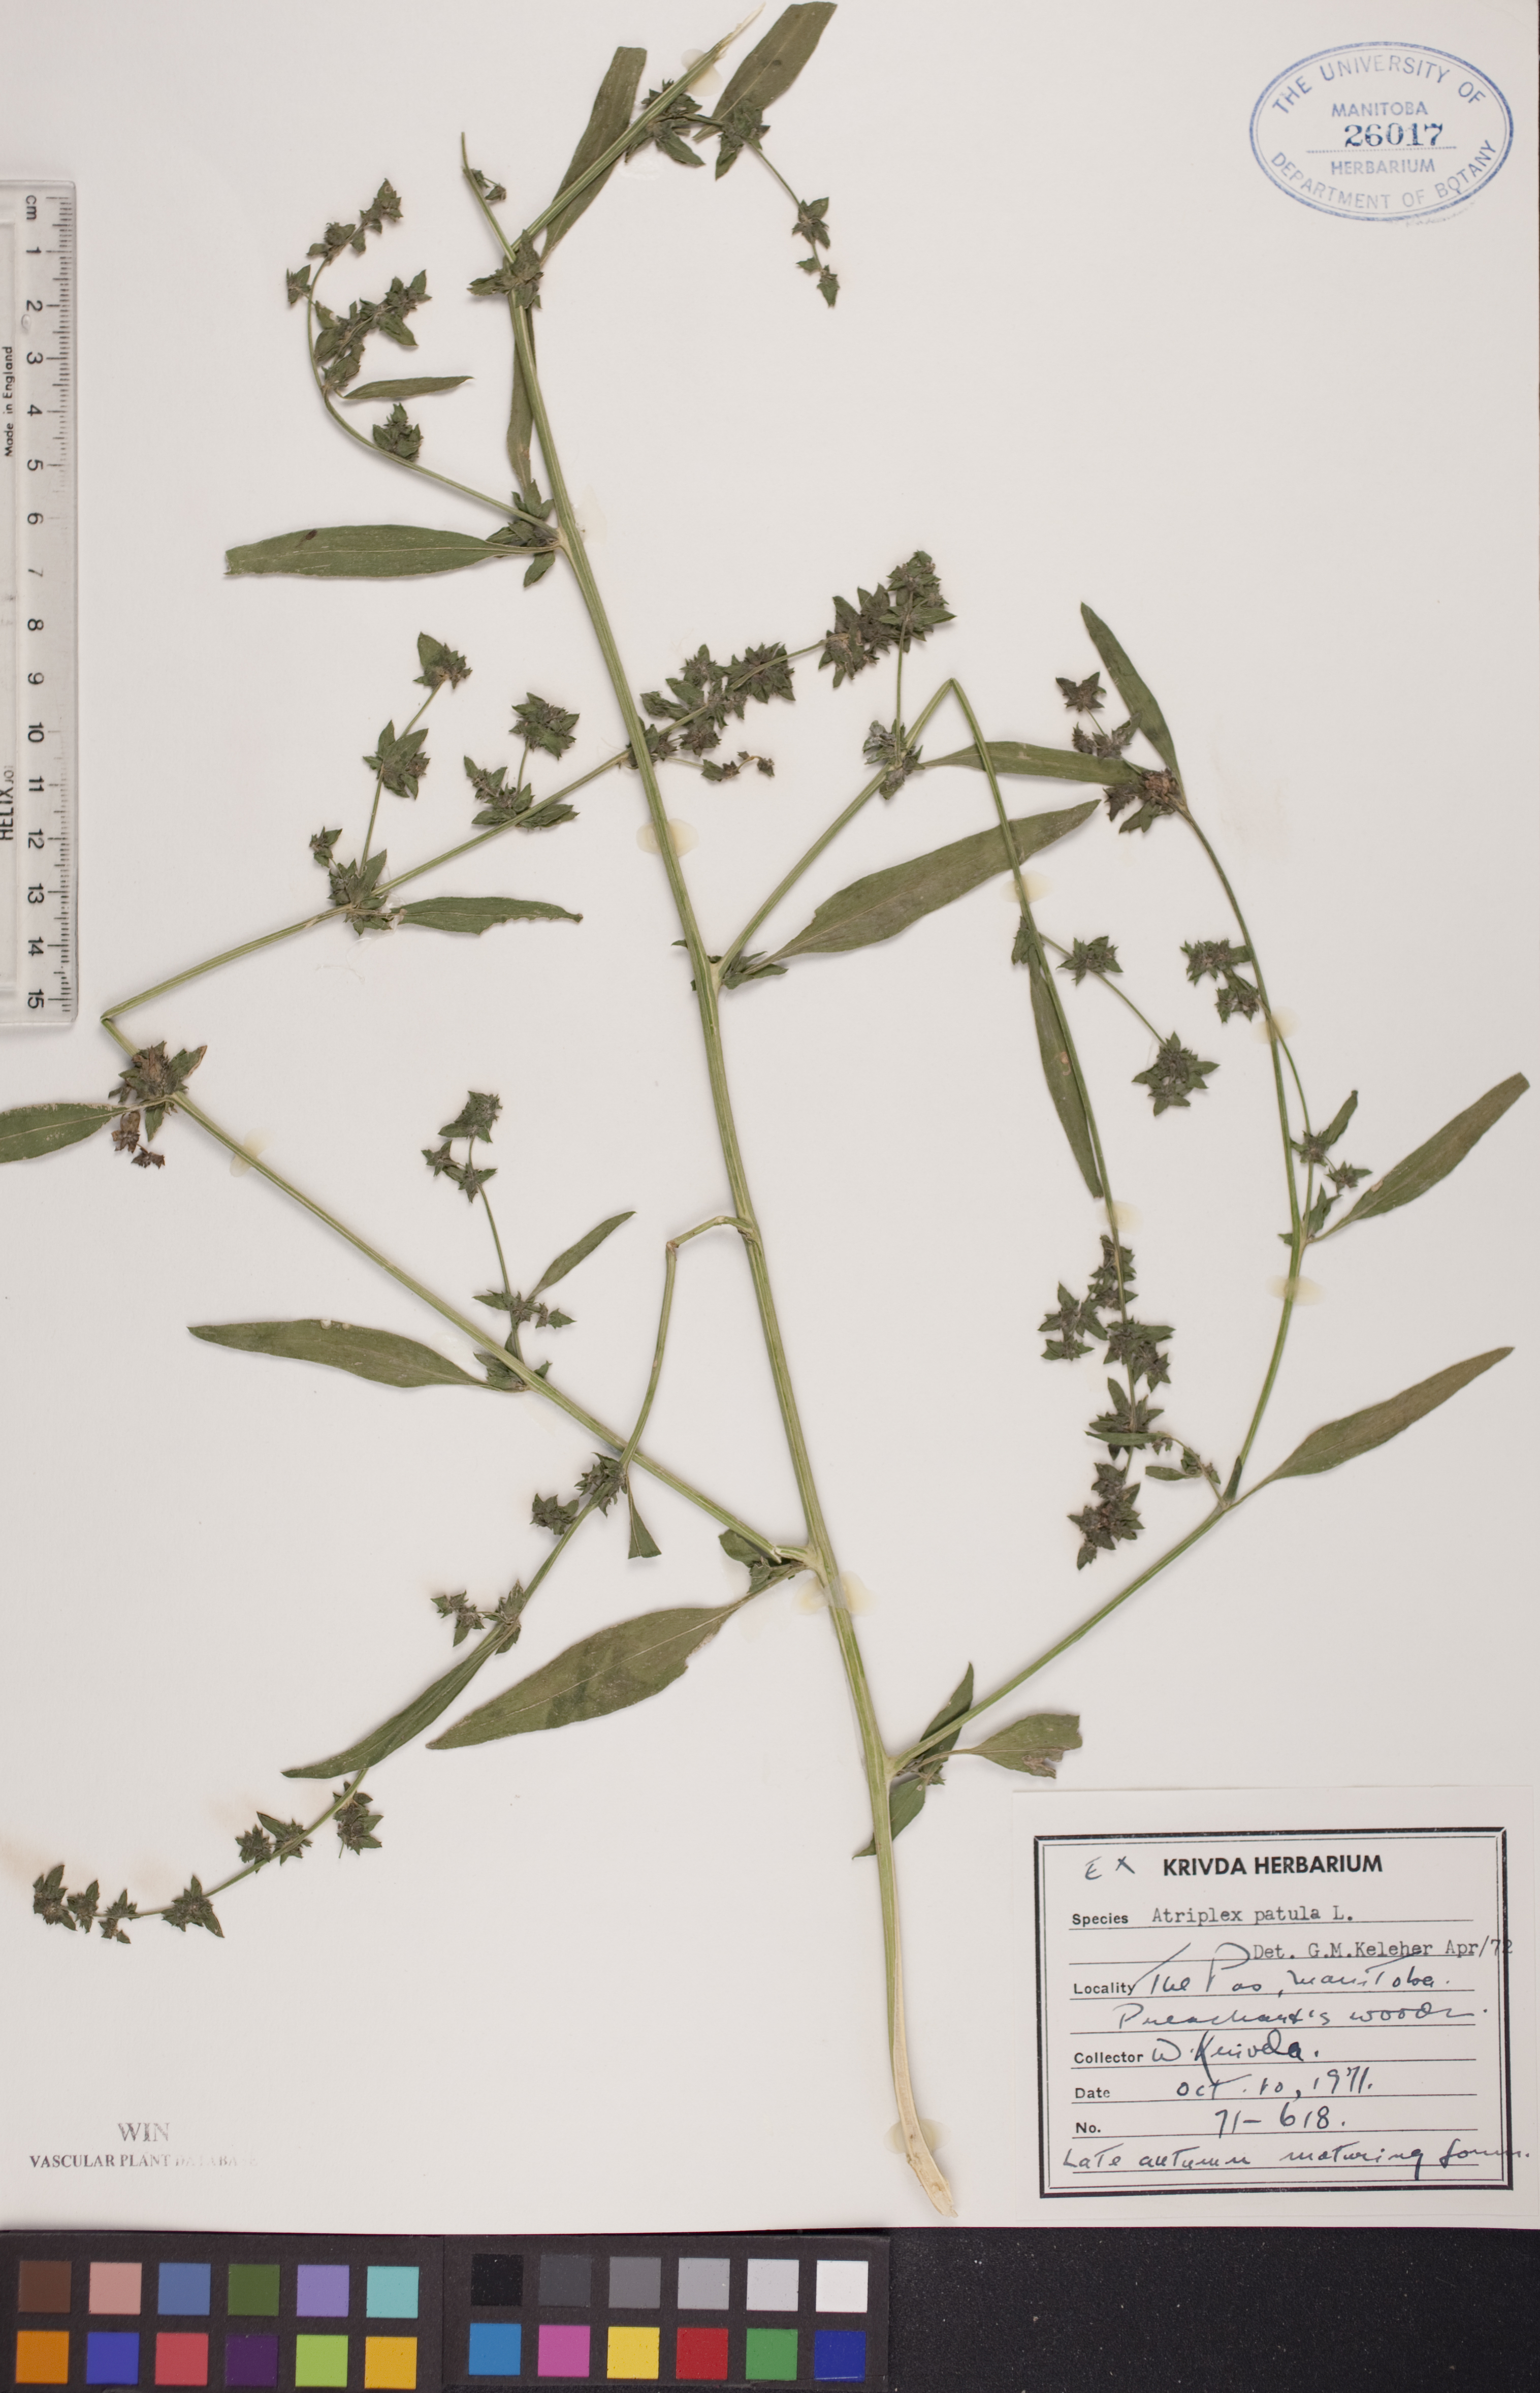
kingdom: Plantae
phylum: Tracheophyta
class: Magnoliopsida
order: Caryophyllales
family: Amaranthaceae
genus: Atriplex
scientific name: Atriplex patula
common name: Common orache
